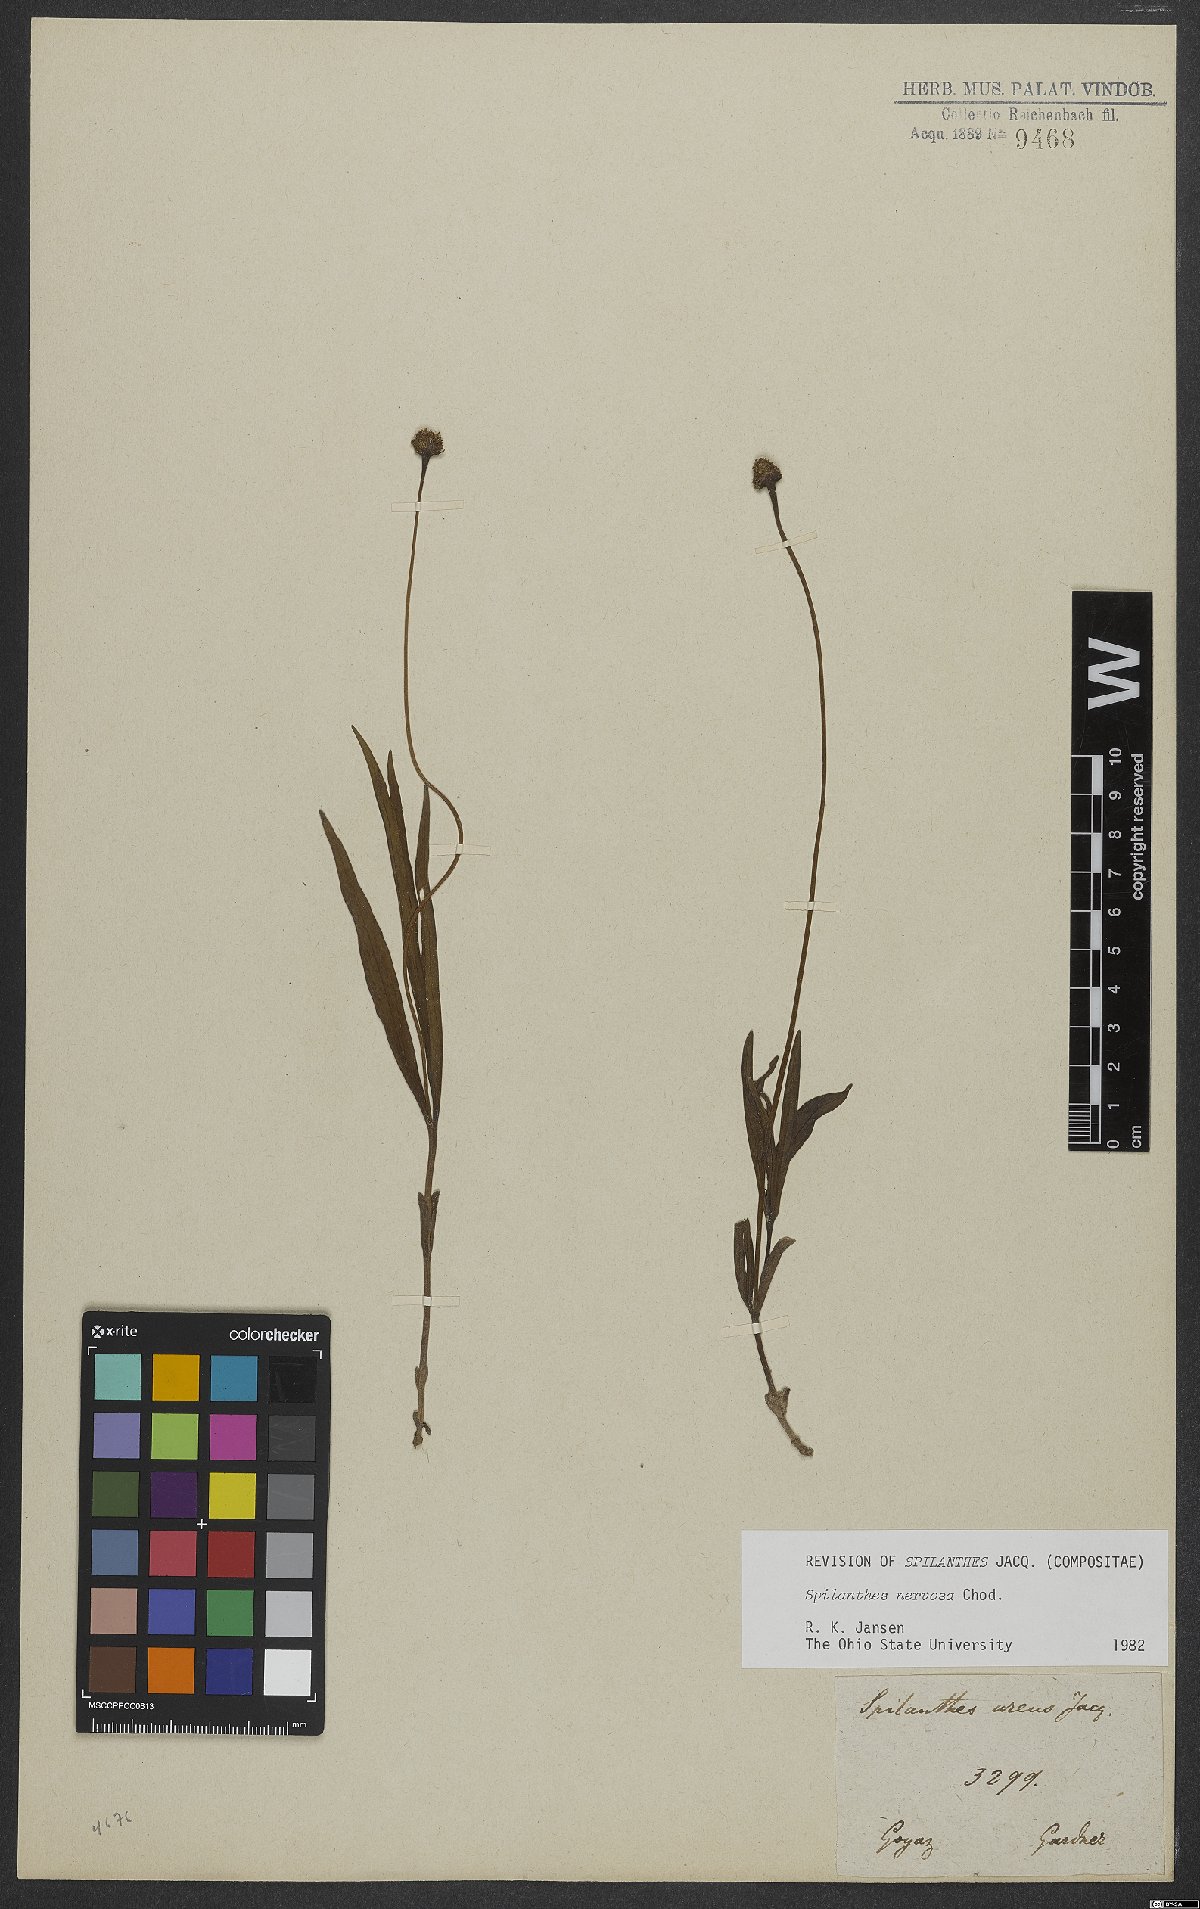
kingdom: Plantae
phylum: Tracheophyta
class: Magnoliopsida
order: Asterales
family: Asteraceae
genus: Spilanthes
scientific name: Spilanthes nervosa
